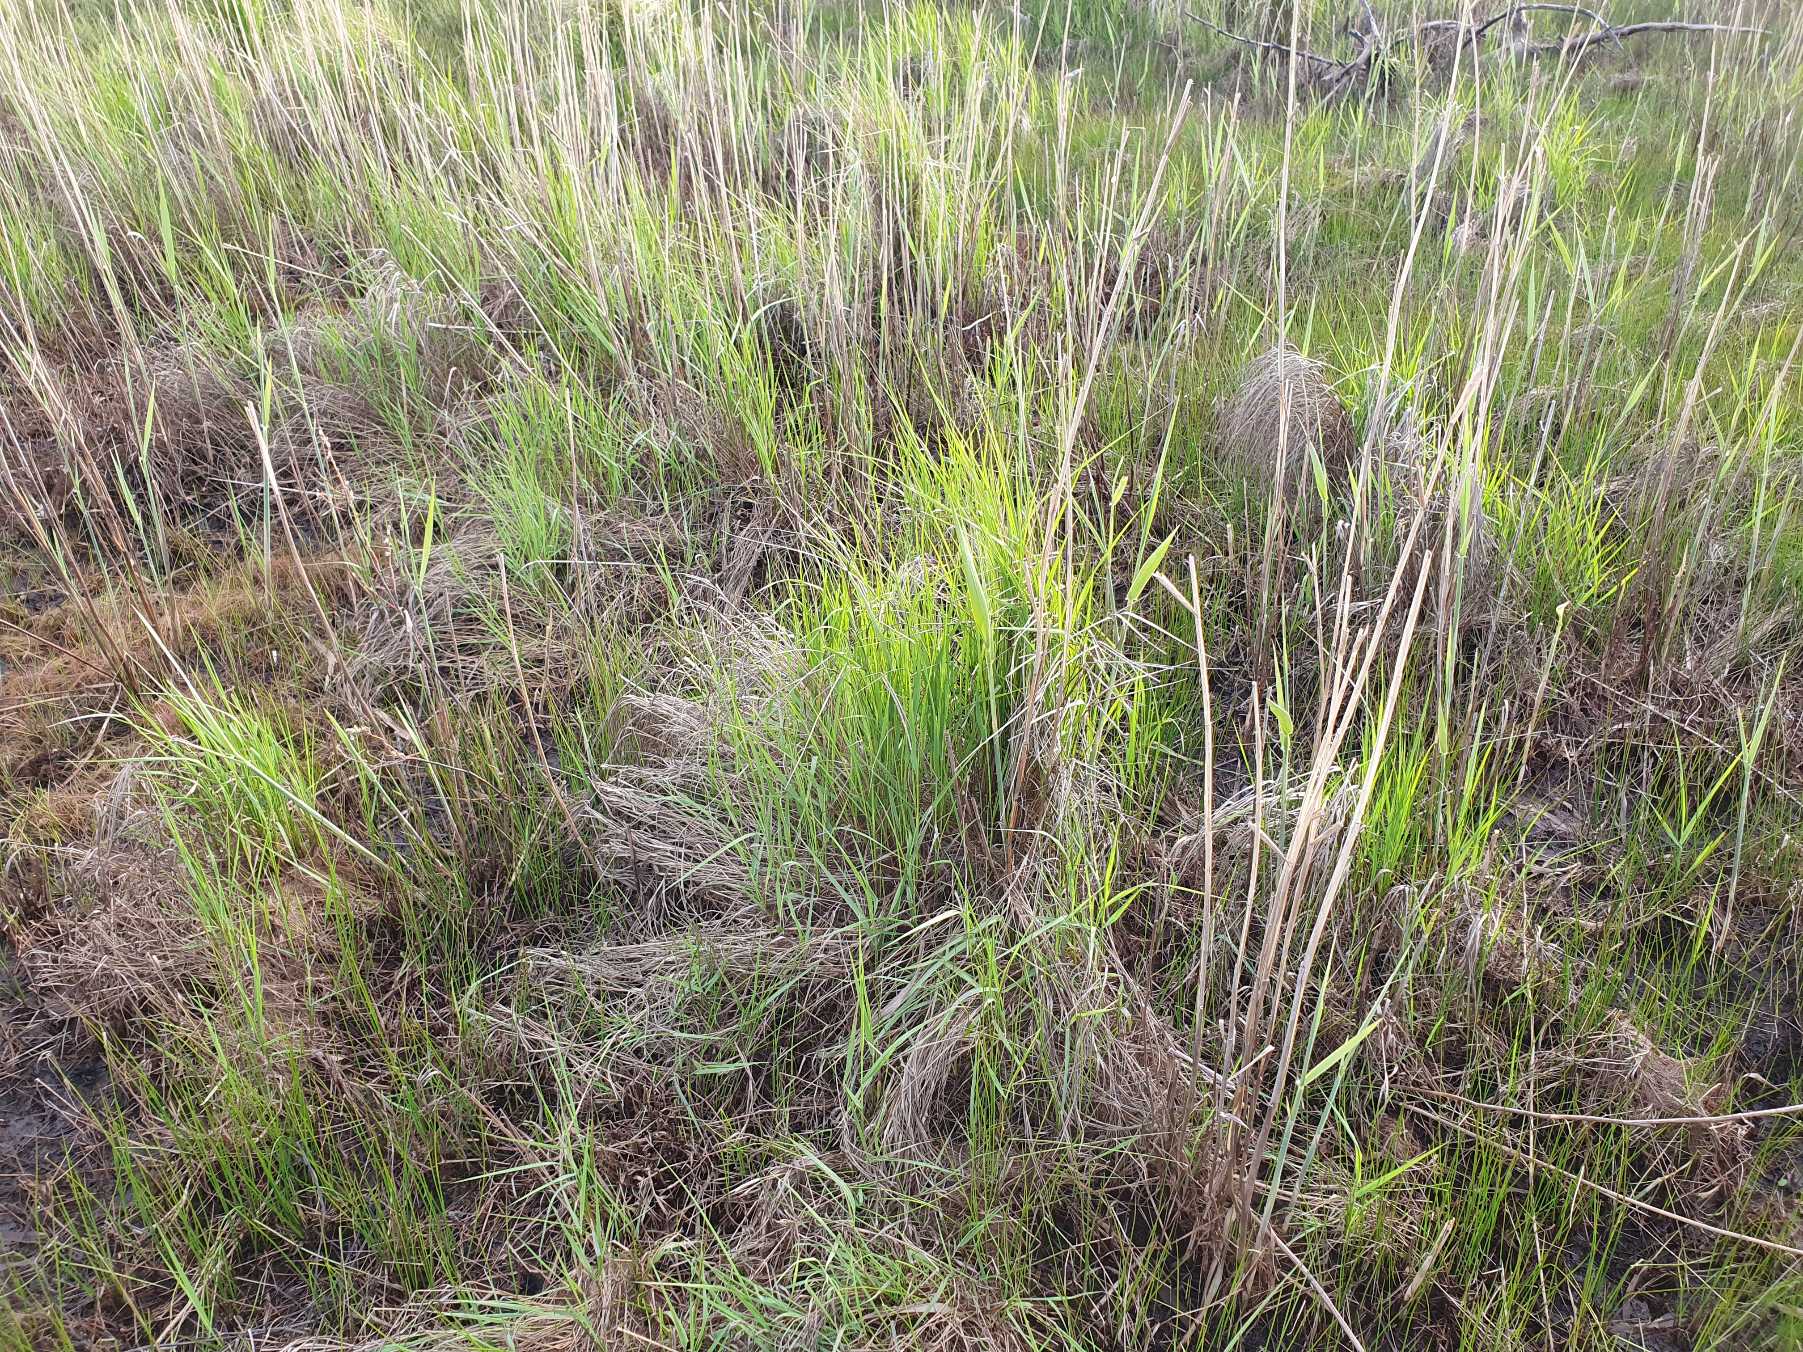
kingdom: Plantae
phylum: Tracheophyta
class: Liliopsida
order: Poales
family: Poaceae
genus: Calamagrostis
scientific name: Calamagrostis canescens
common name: Eng-rørhvene
